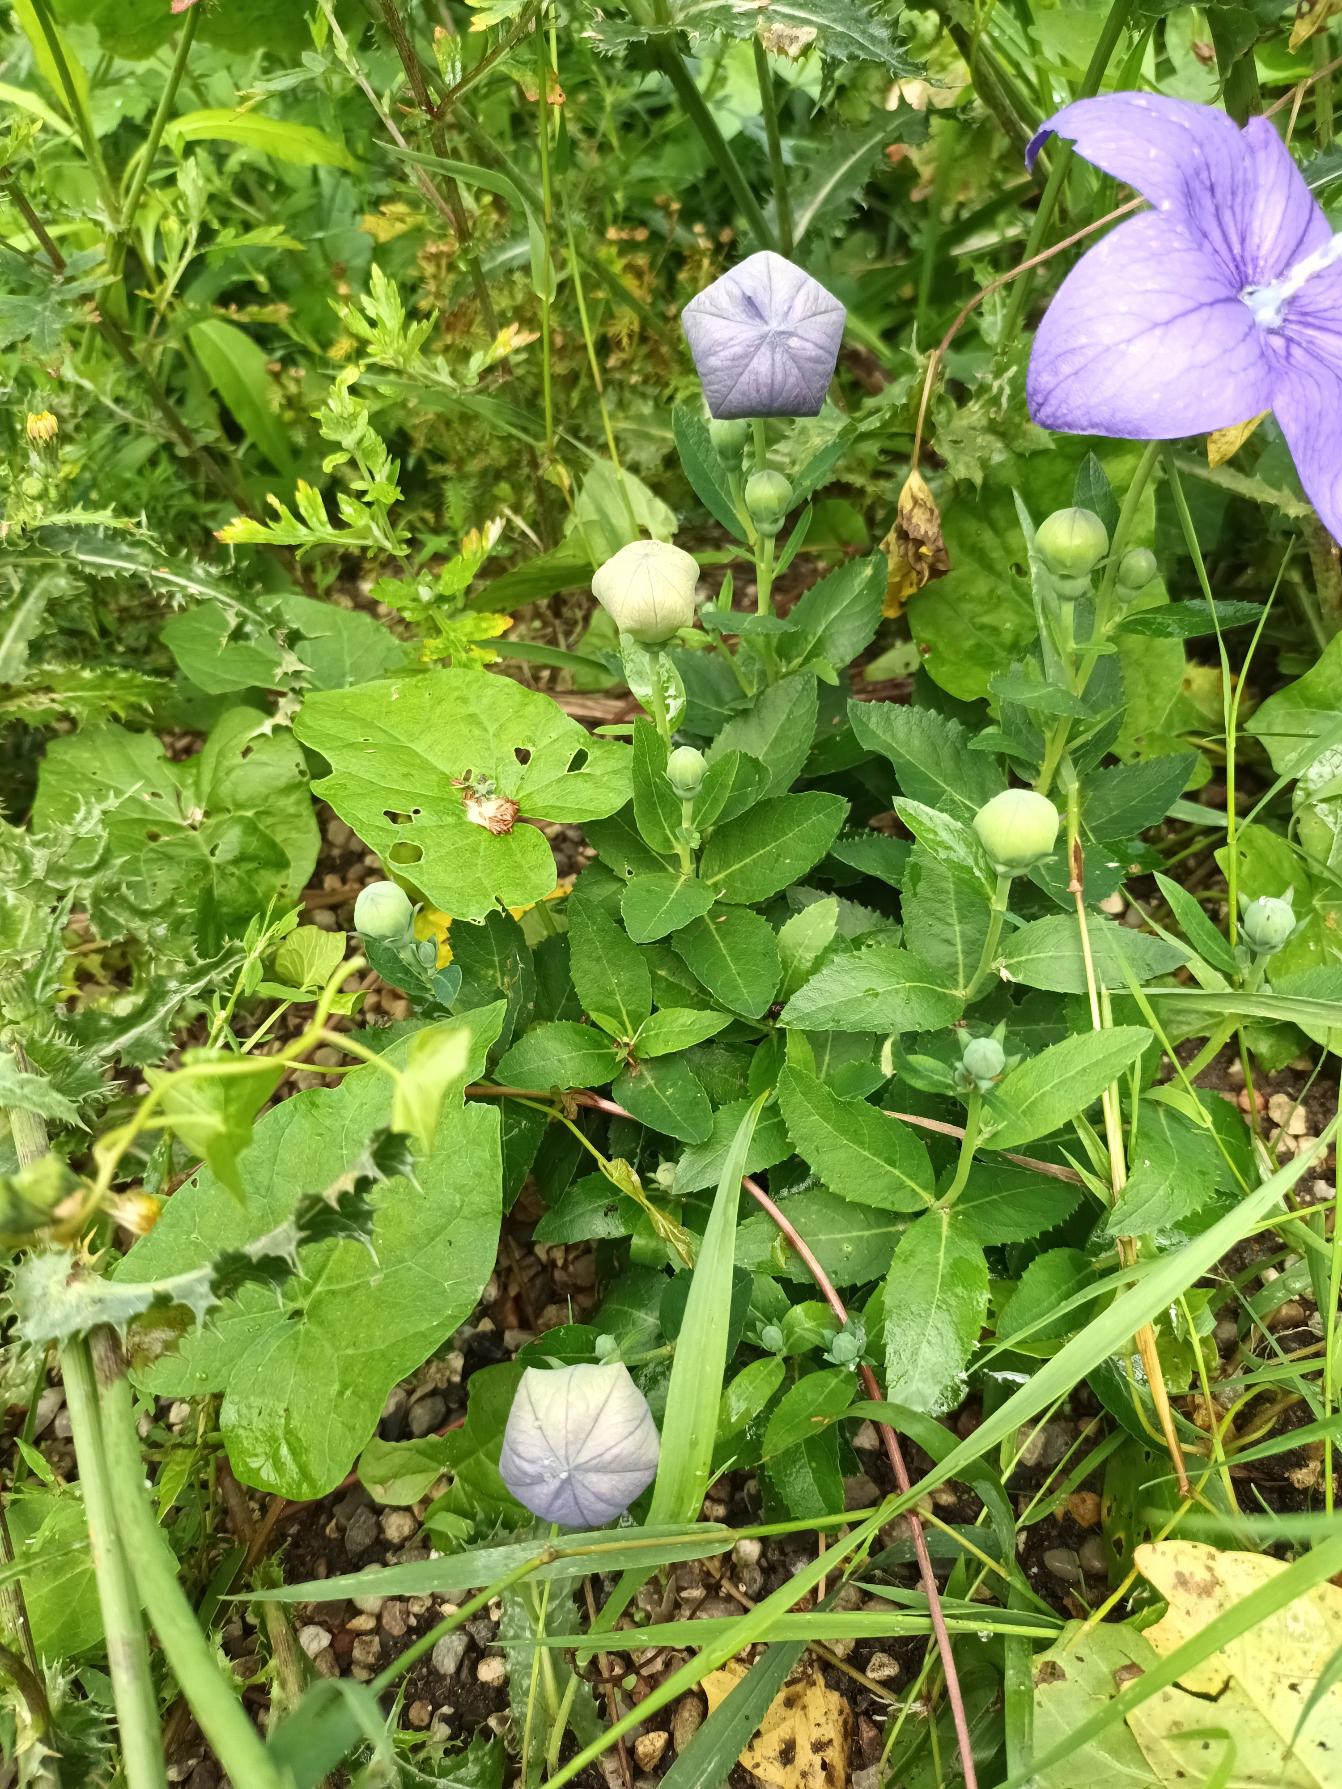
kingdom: Plantae
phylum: Tracheophyta
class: Magnoliopsida
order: Asterales
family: Campanulaceae
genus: Platycodon
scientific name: Platycodon grandiflorus
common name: Ballonklokke
